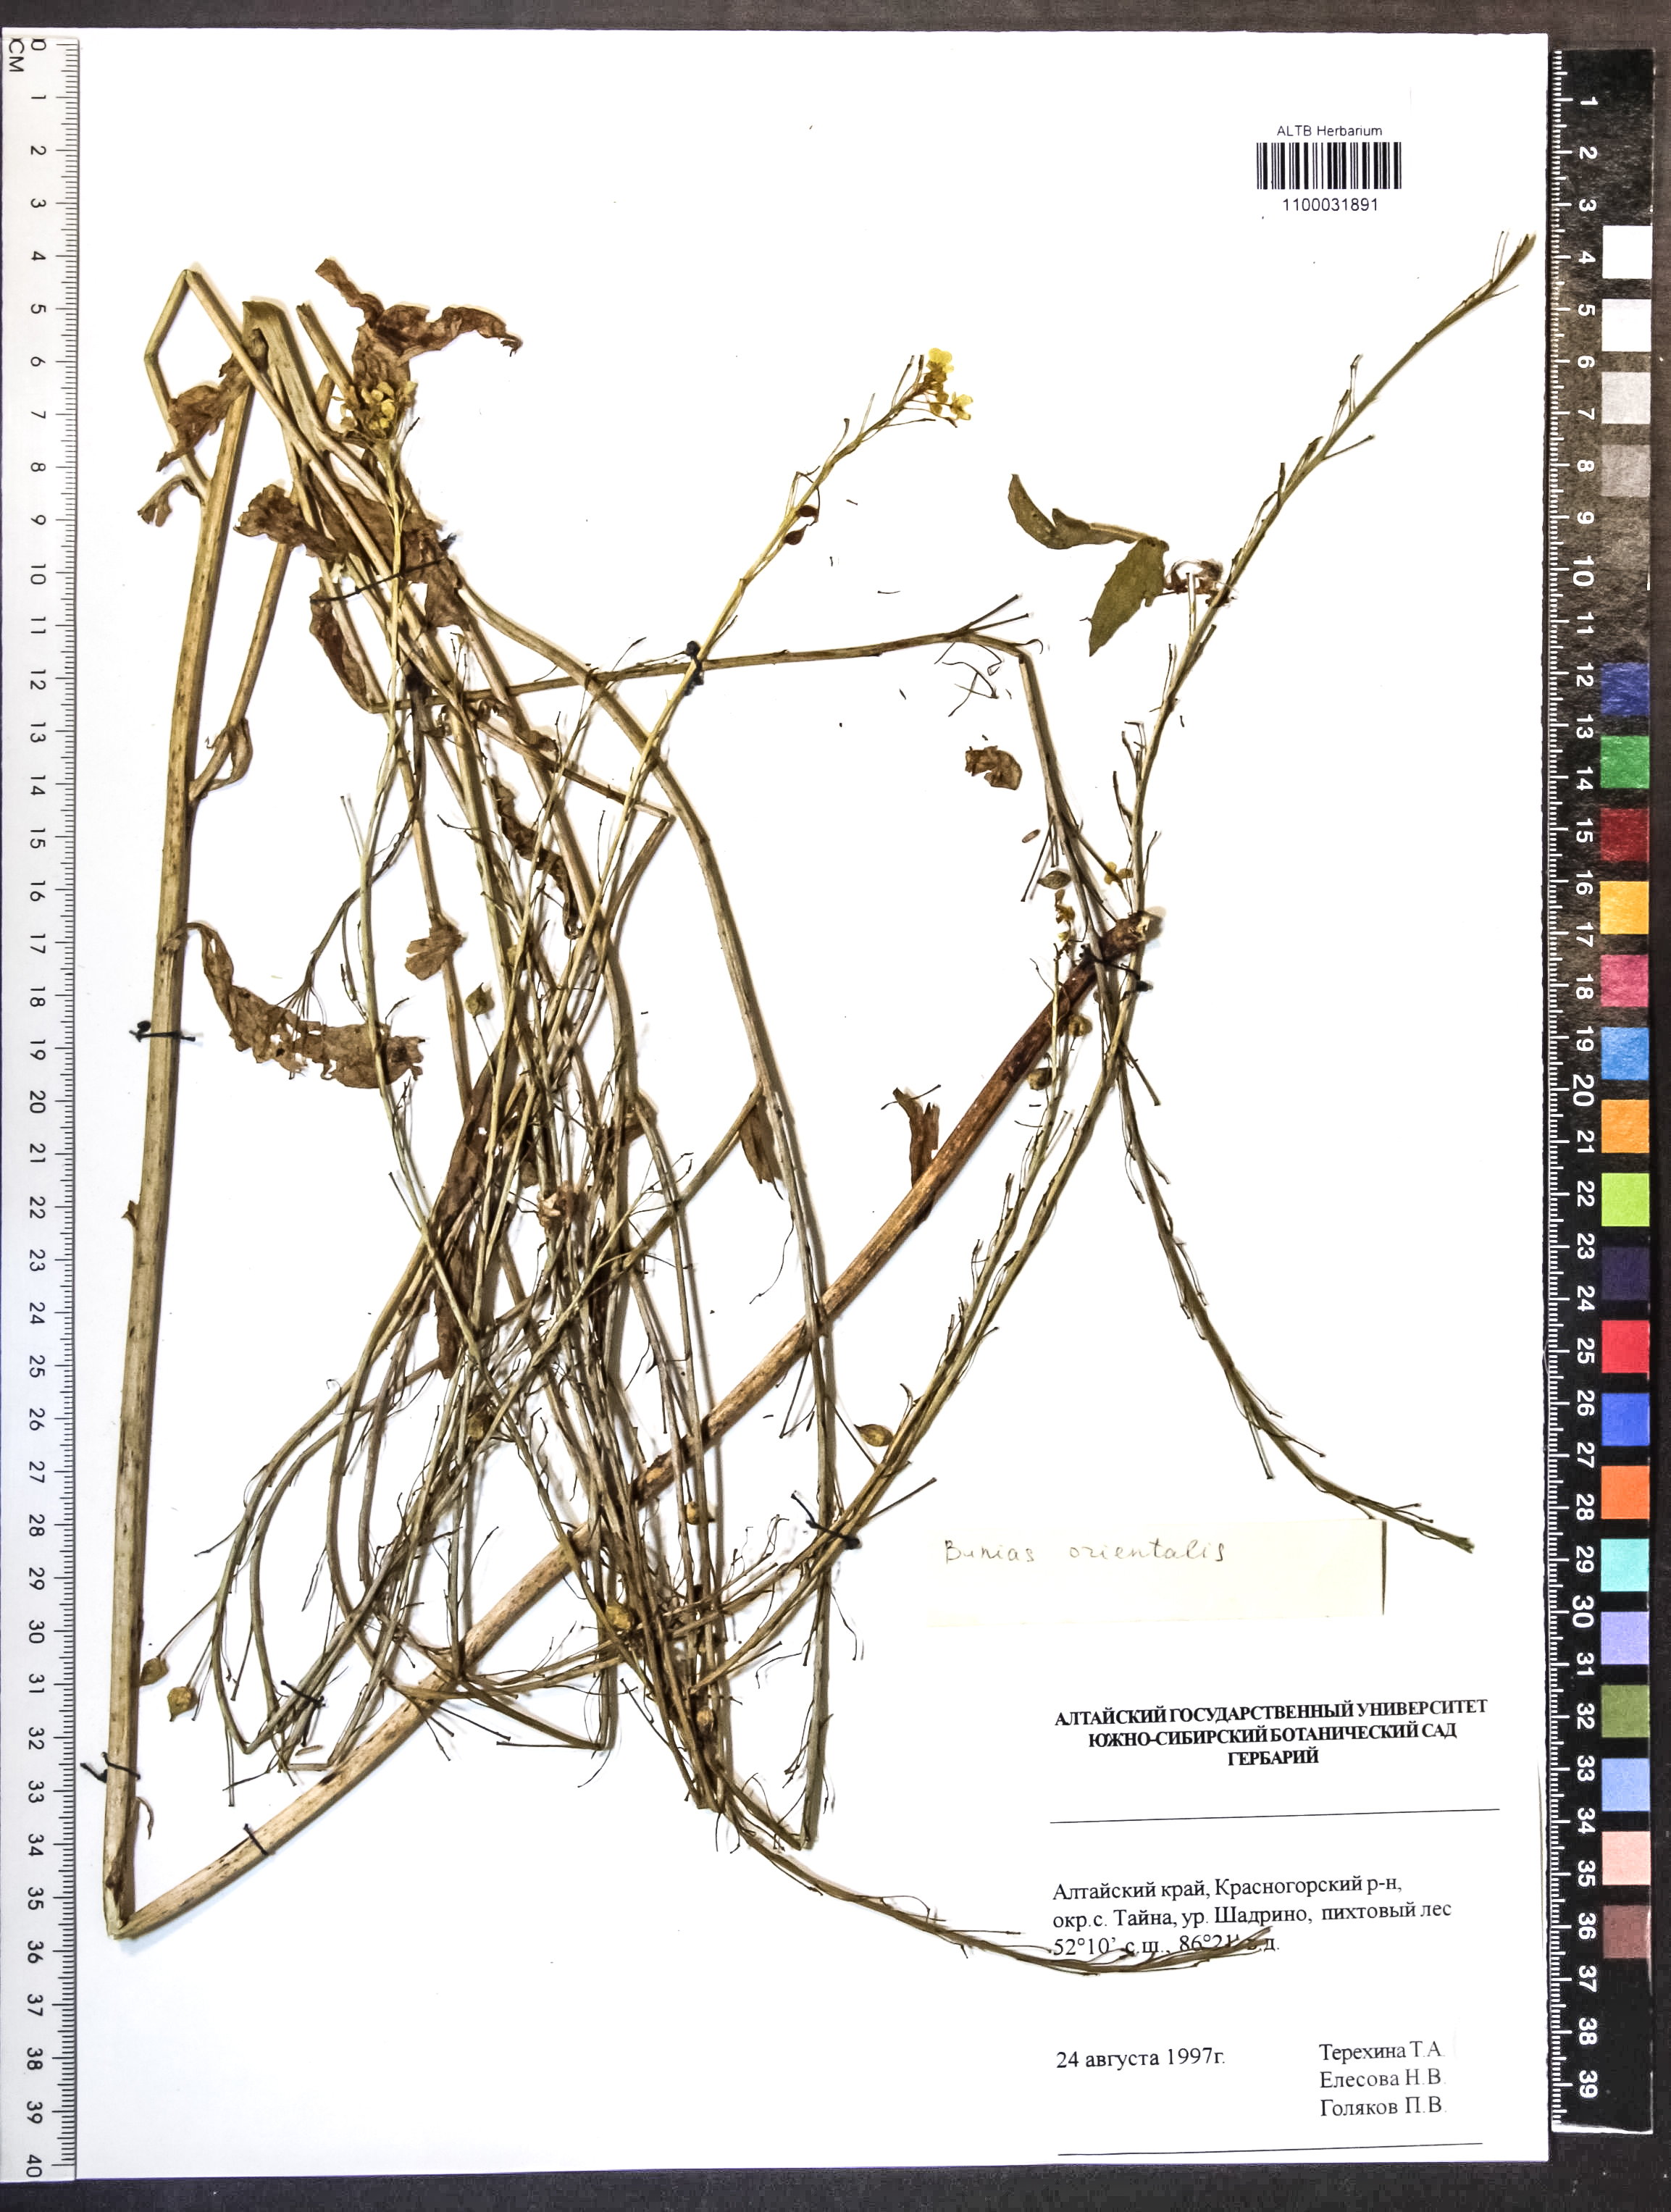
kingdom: Plantae
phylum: Tracheophyta
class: Magnoliopsida
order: Brassicales
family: Brassicaceae
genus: Bunias
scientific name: Bunias orientalis
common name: Warty-cabbage
